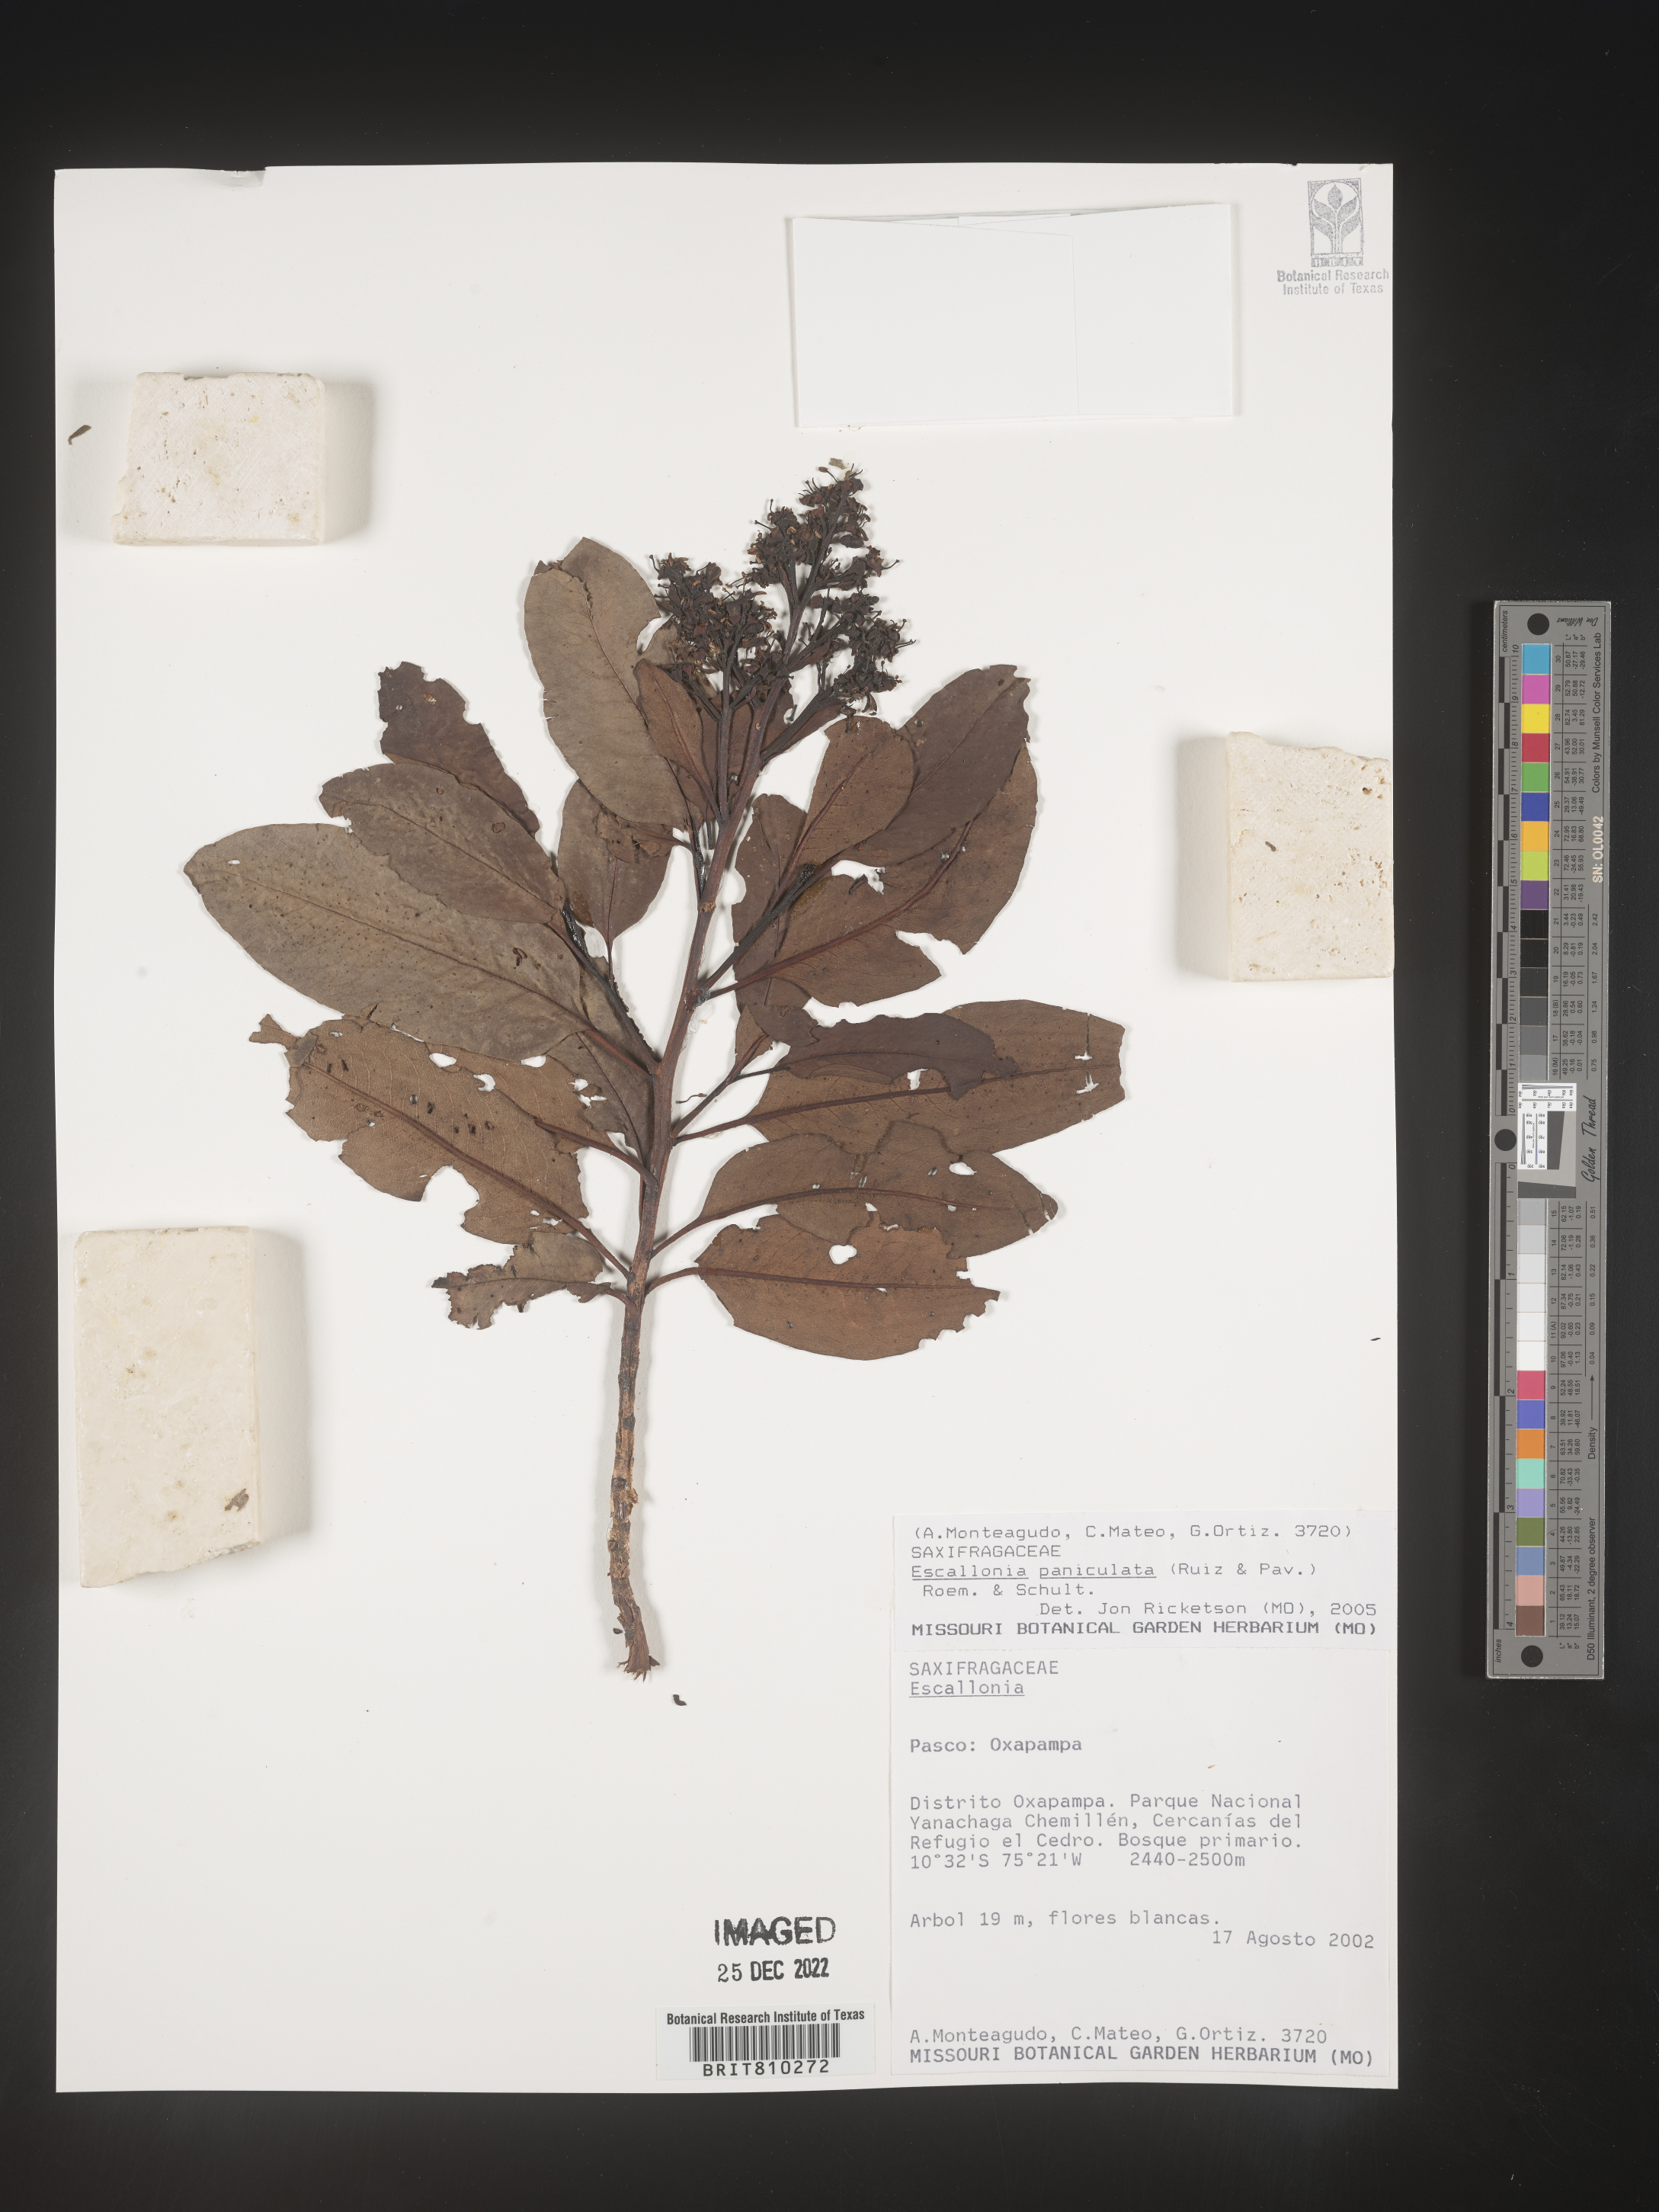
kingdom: Plantae
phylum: Tracheophyta
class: Magnoliopsida
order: Escalloniales
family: Escalloniaceae
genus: Escallonia
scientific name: Escallonia paniculata
